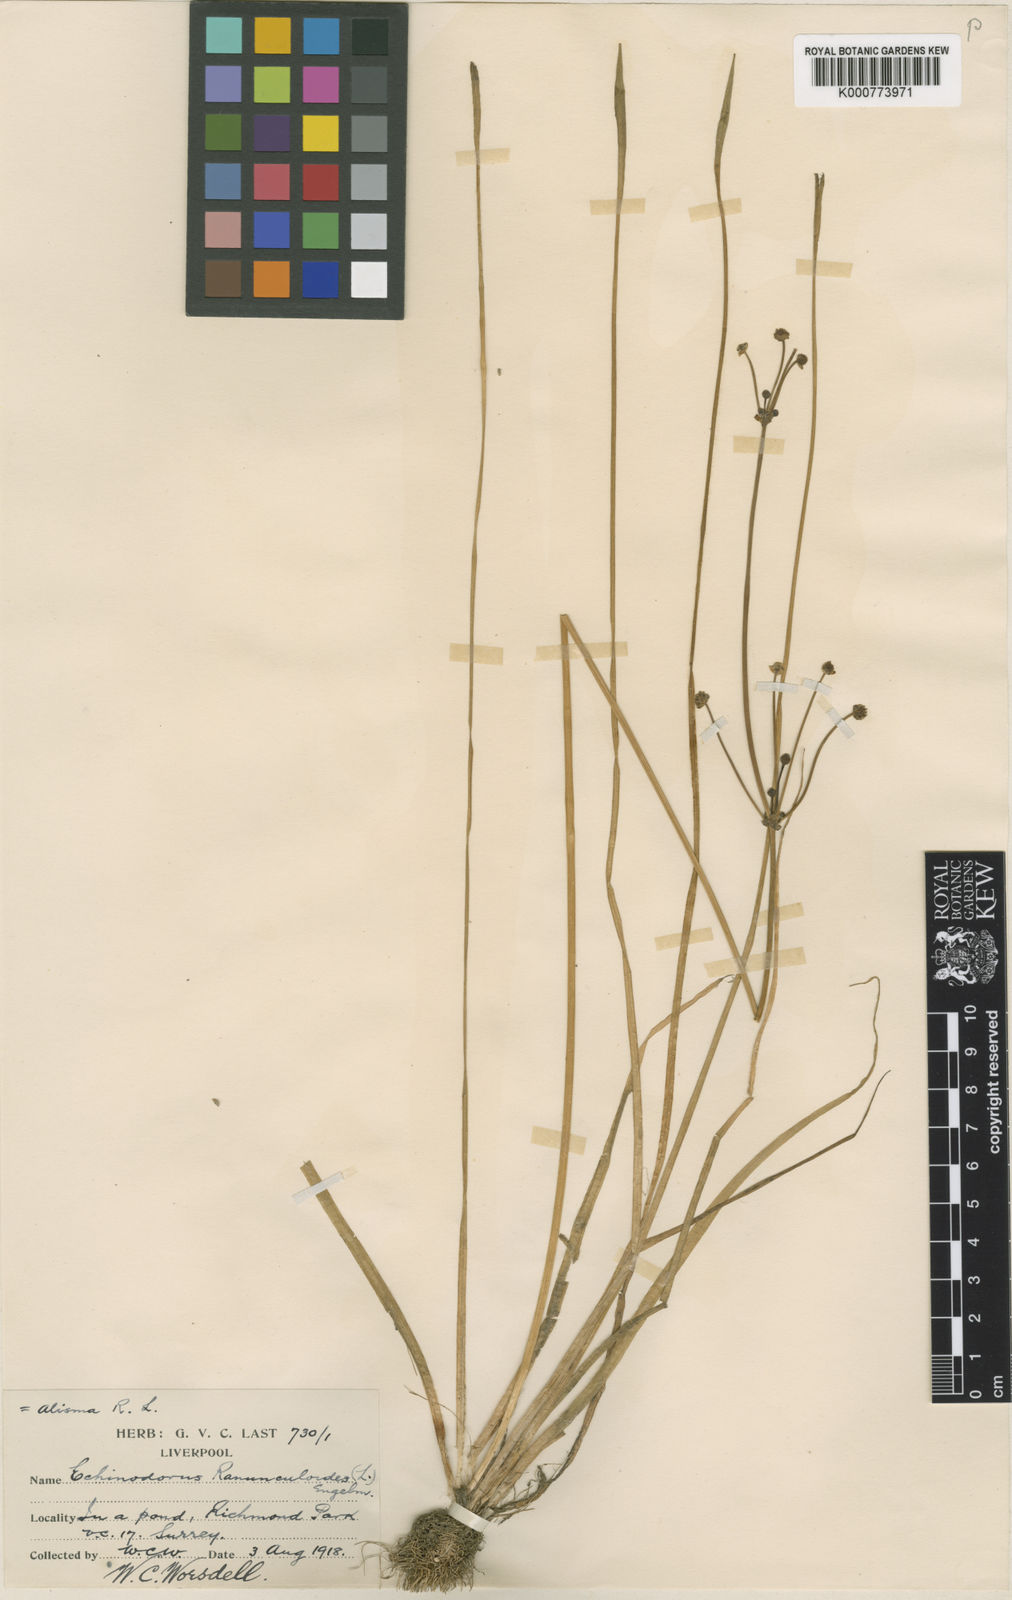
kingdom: Plantae
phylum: Tracheophyta
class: Liliopsida
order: Alismatales
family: Alismataceae
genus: Baldellia
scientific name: Baldellia ranunculoides
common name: Lesser water-plantain
